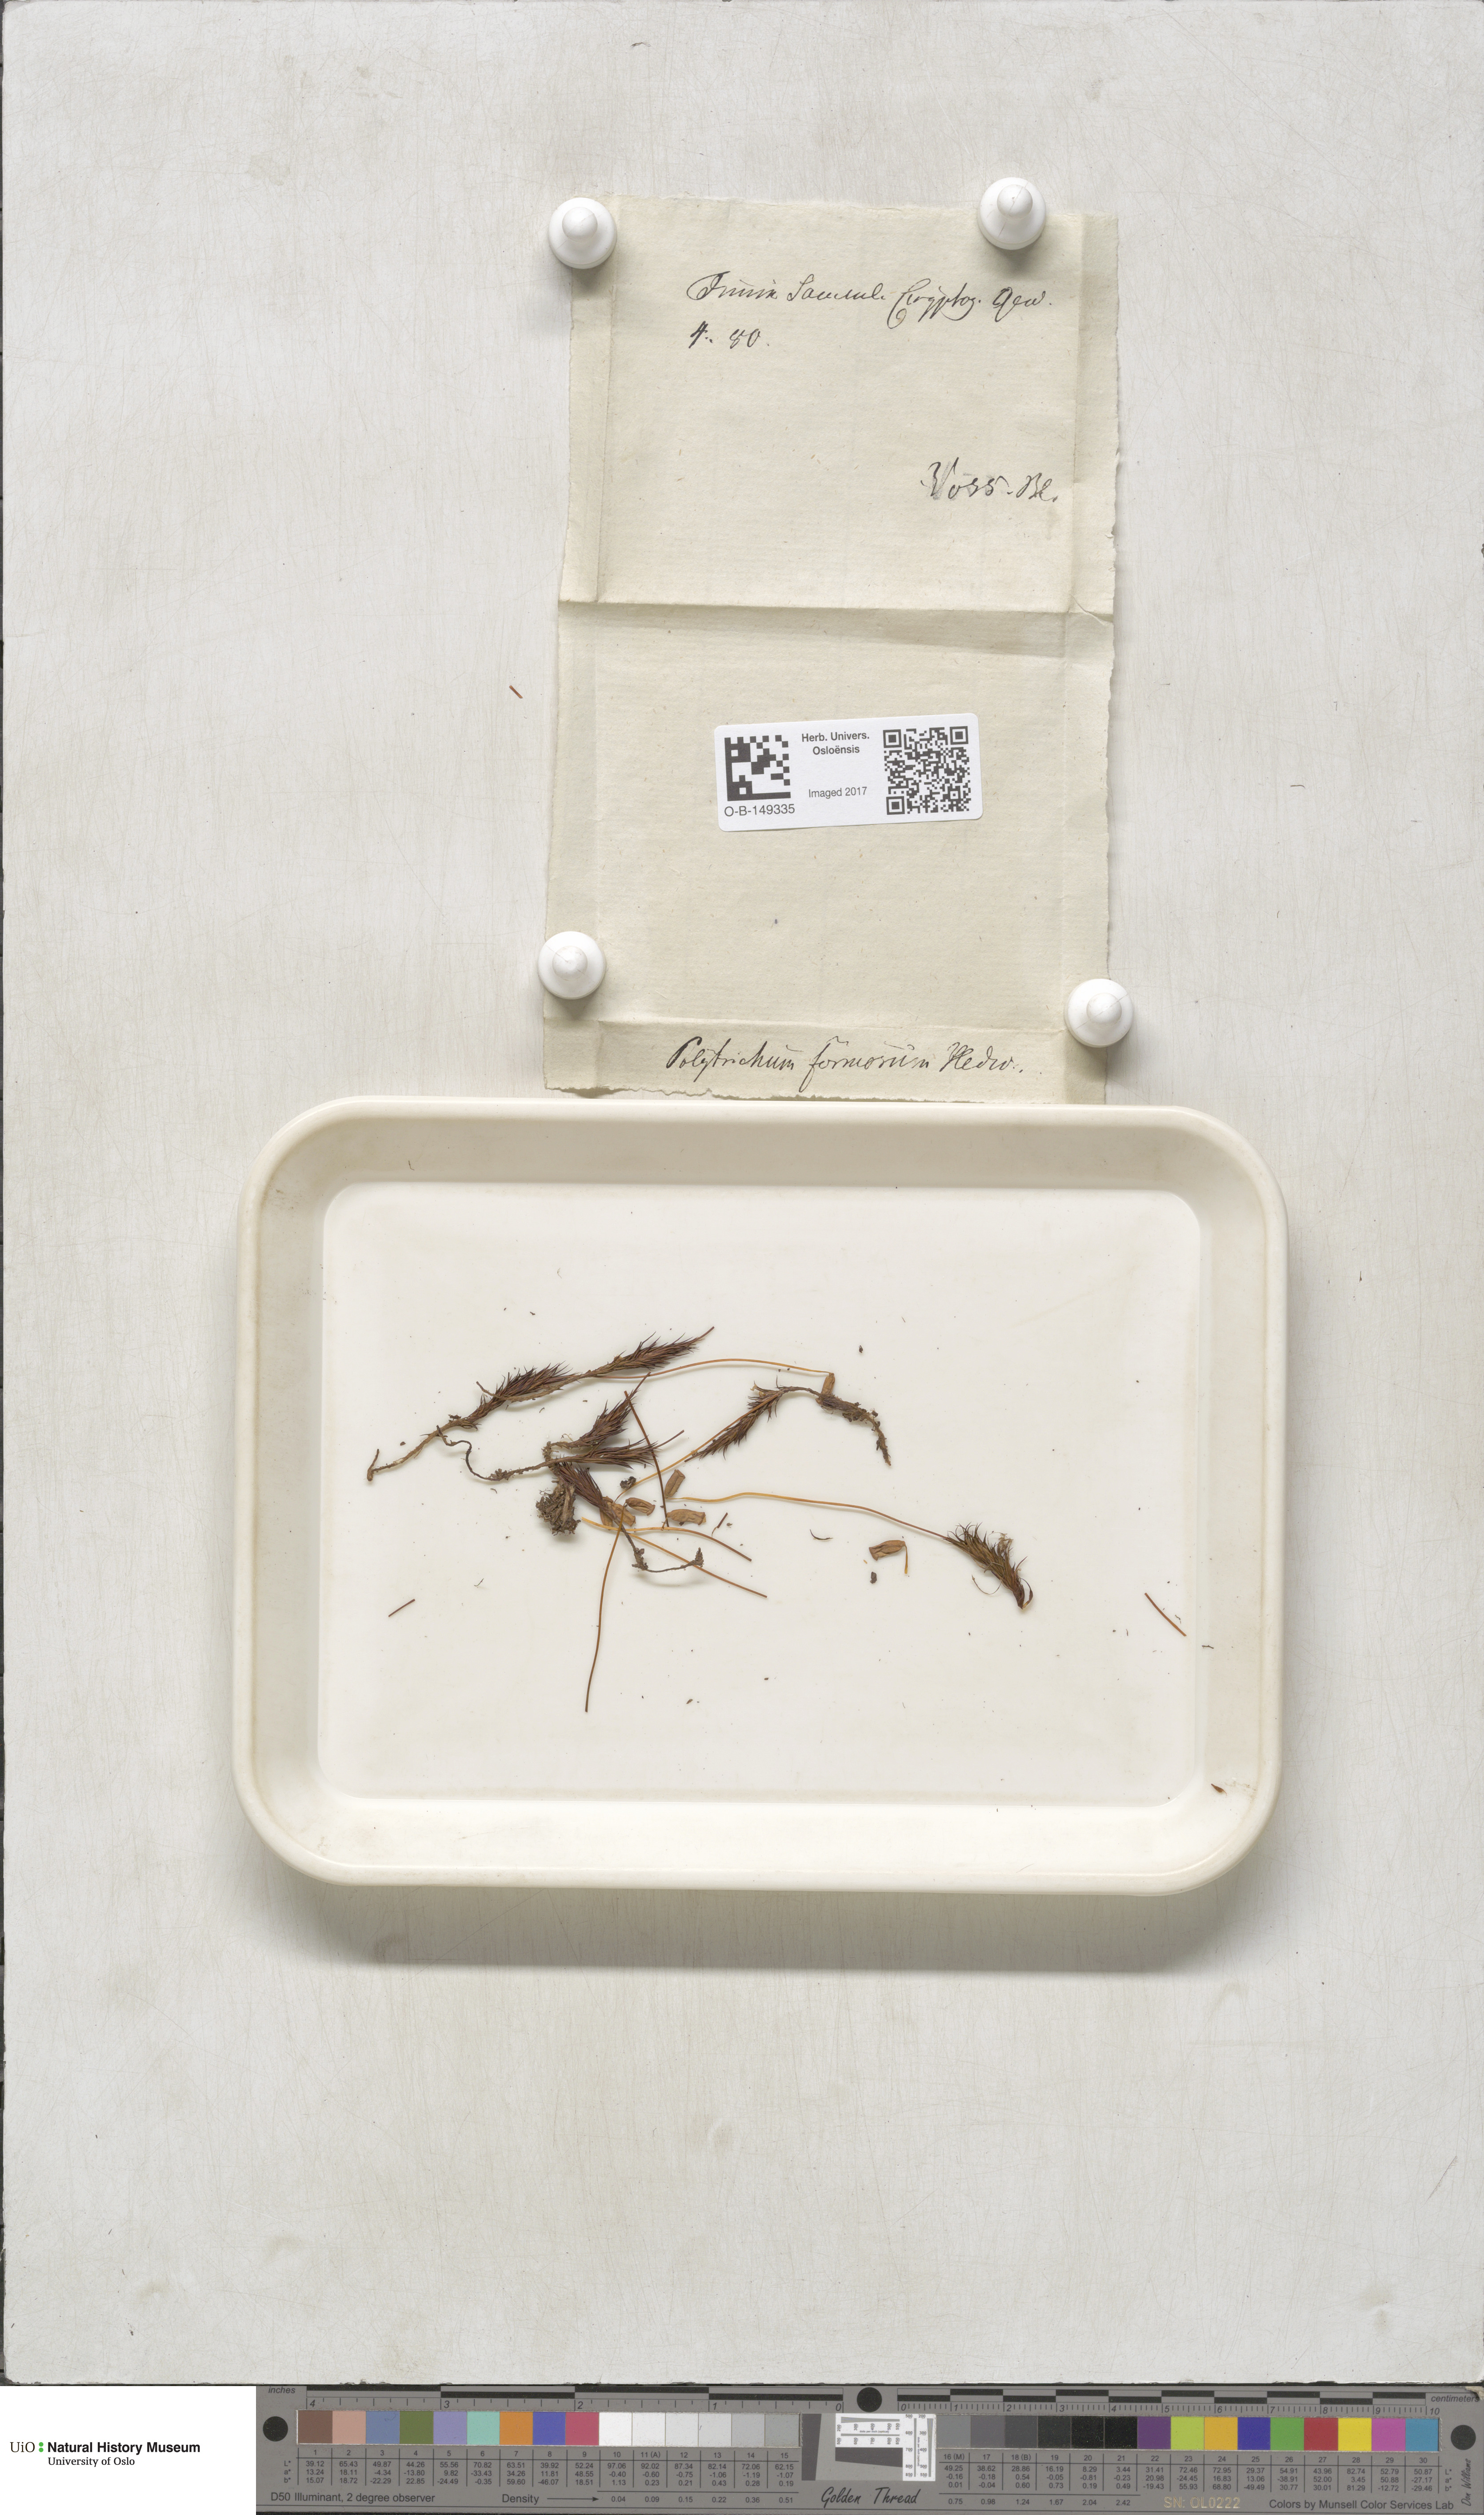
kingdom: Plantae
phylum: Bryophyta
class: Polytrichopsida
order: Polytrichales
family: Polytrichaceae
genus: Polytrichum
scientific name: Polytrichum formosum
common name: Bank haircap moss
